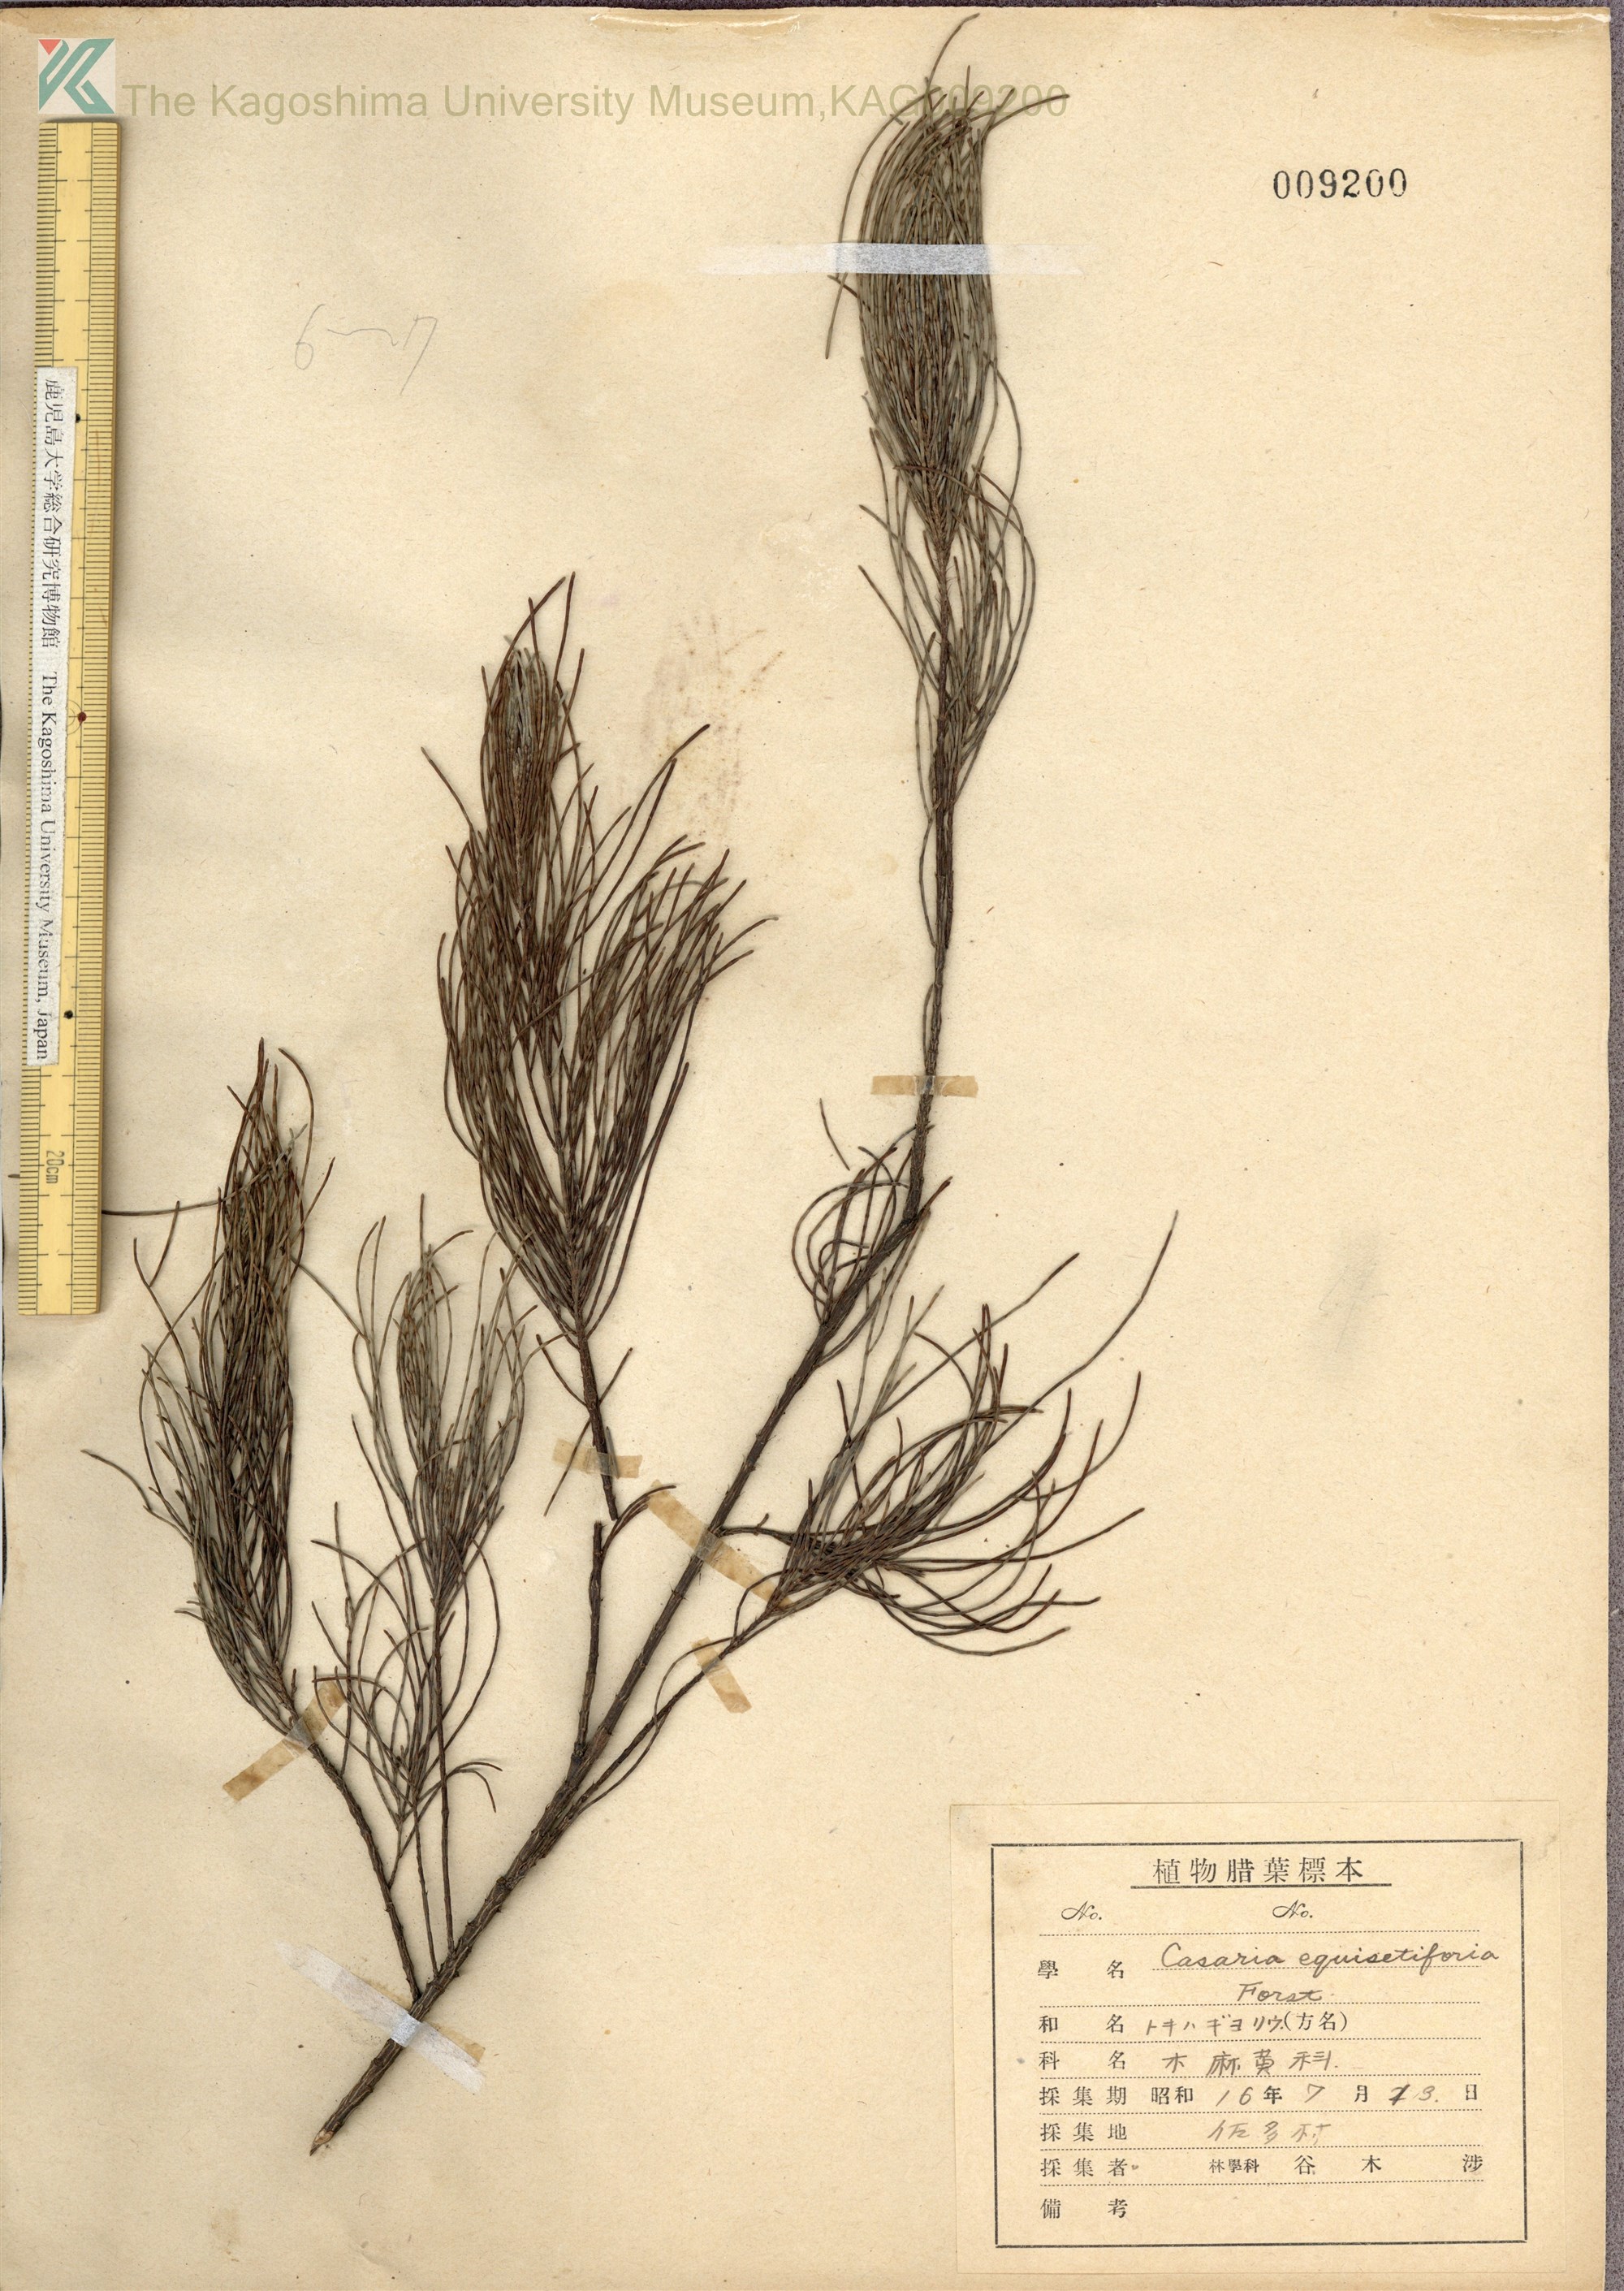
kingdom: Plantae
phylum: Tracheophyta
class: Magnoliopsida
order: Fagales
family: Casuarinaceae
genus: Casuarina
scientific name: Casuarina equisetifolia
